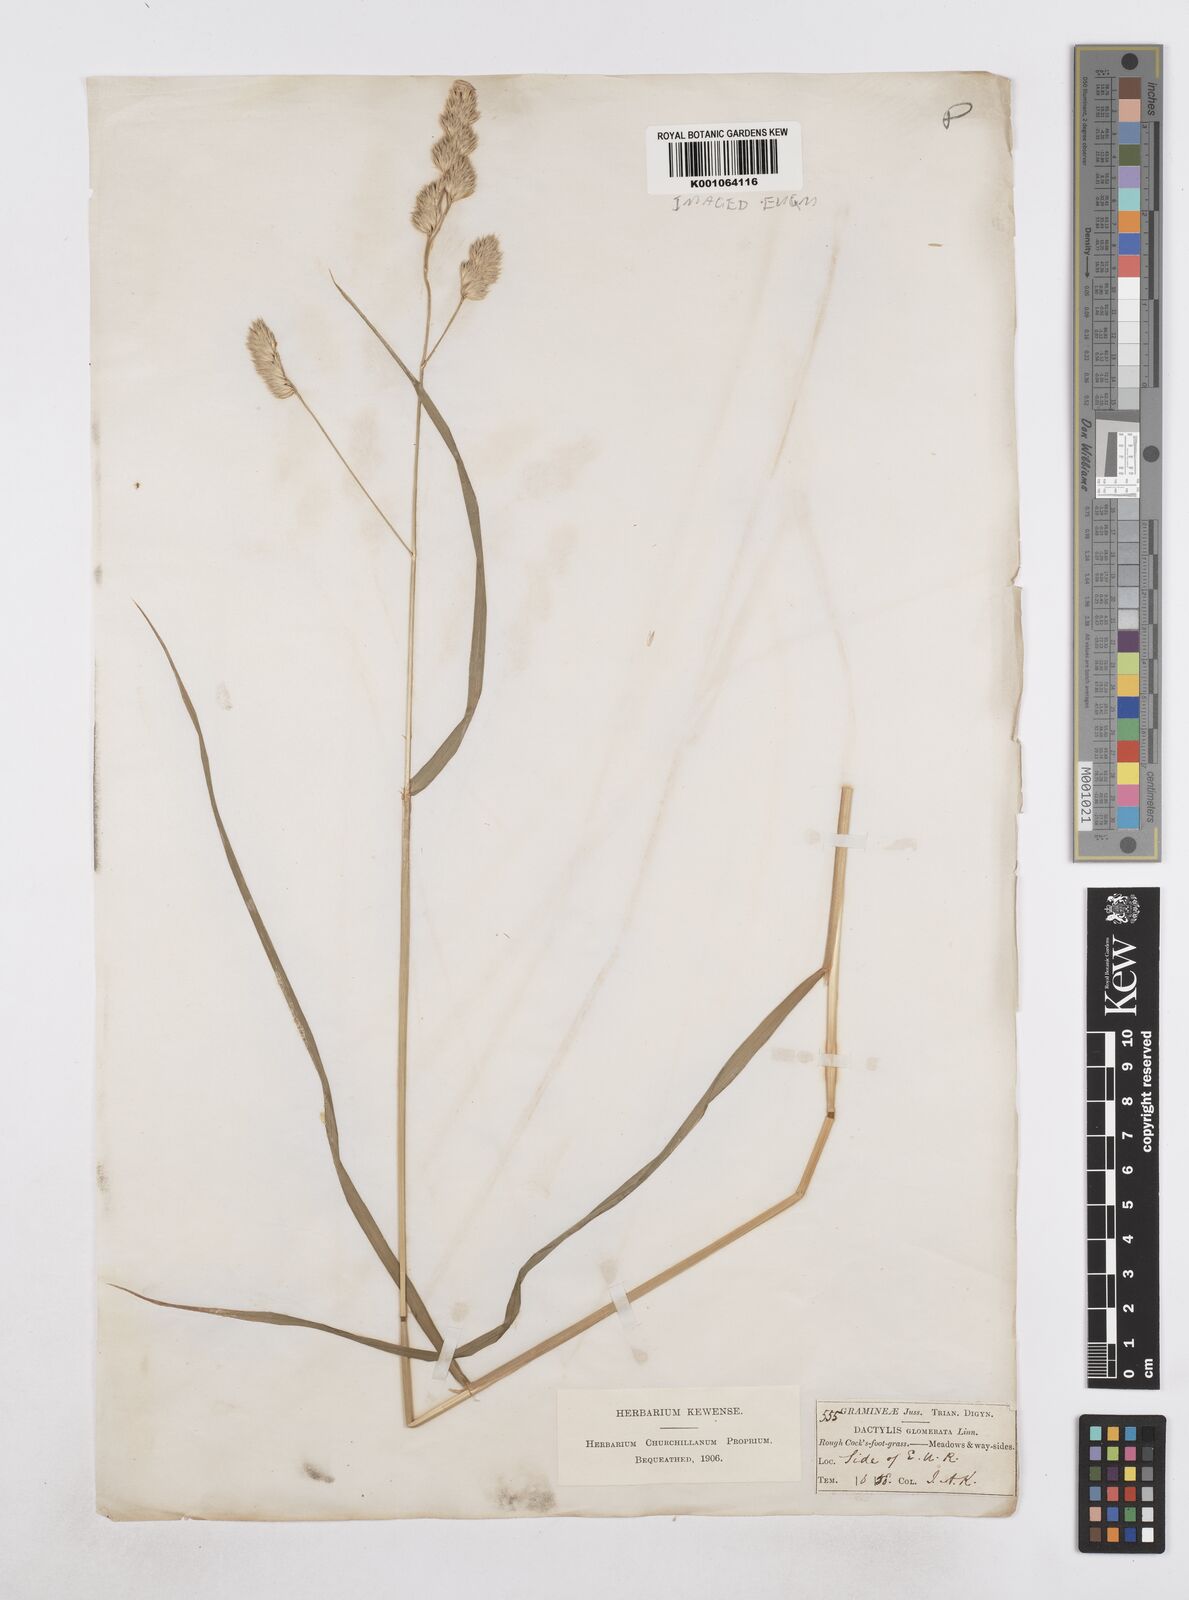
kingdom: Plantae
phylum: Tracheophyta
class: Liliopsida
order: Poales
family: Poaceae
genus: Dactylis
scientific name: Dactylis glomerata
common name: Orchardgrass
